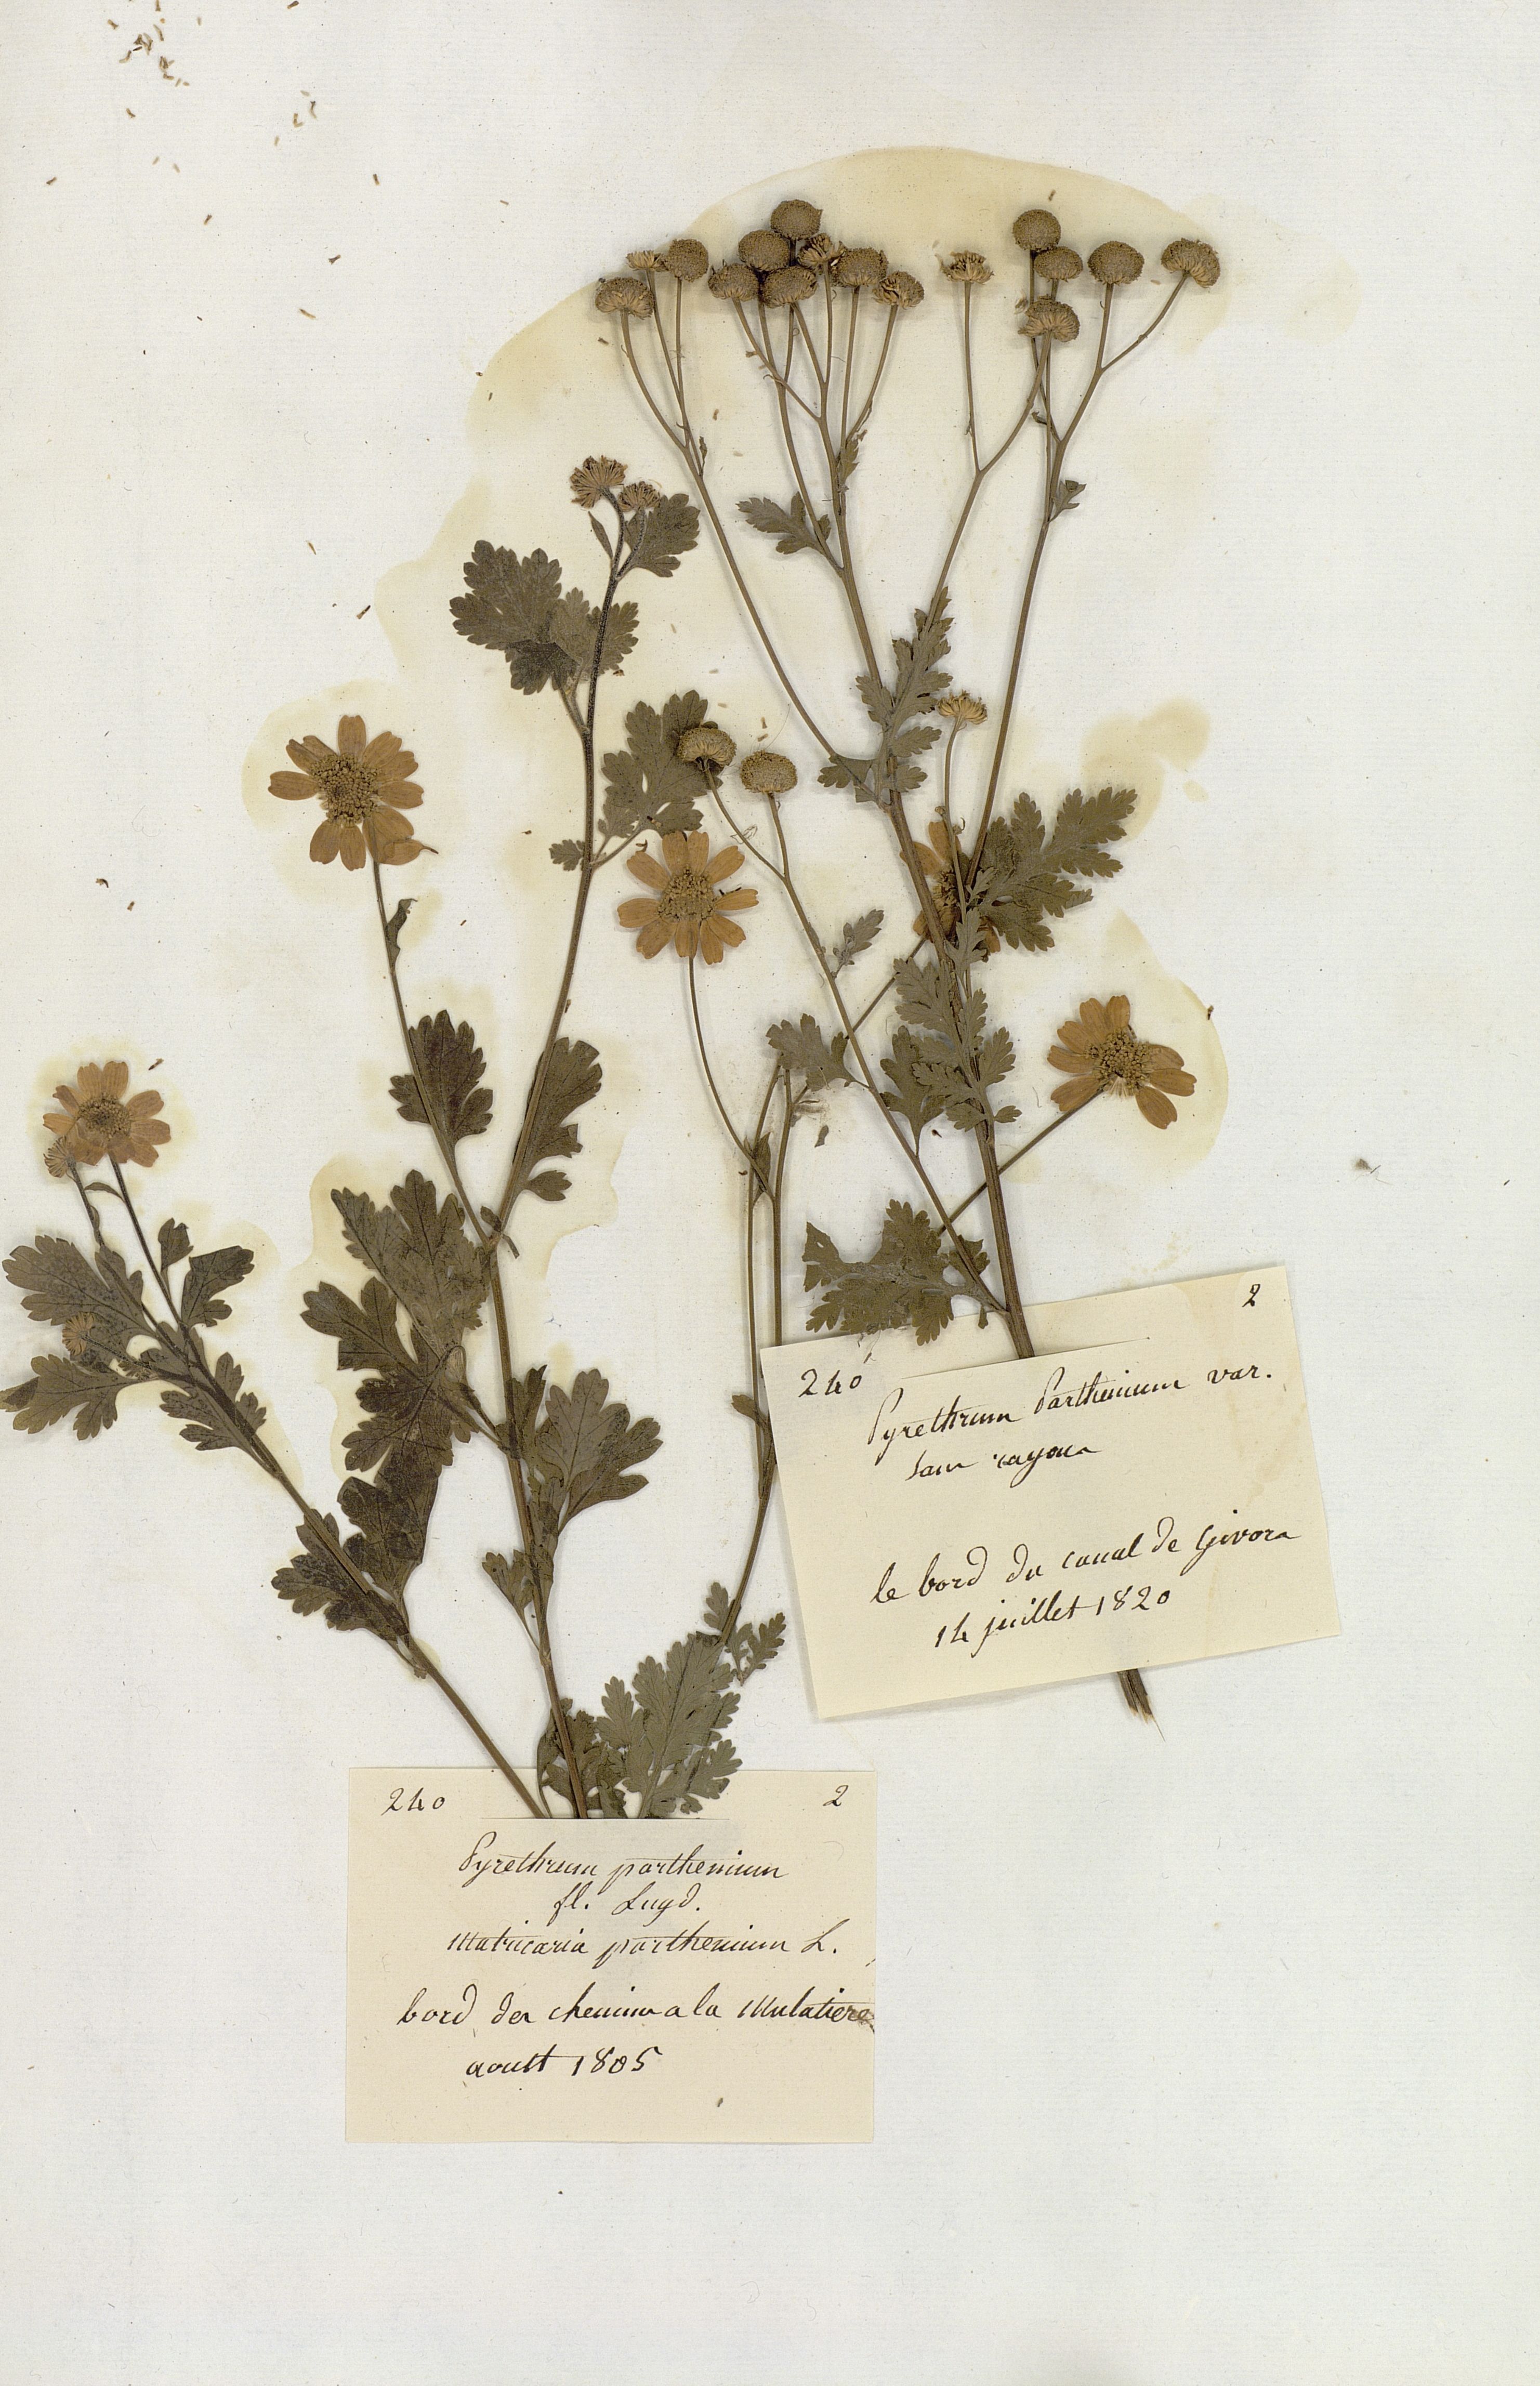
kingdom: Plantae
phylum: Tracheophyta
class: Magnoliopsida
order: Asterales
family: Asteraceae
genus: Tanacetum
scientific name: Tanacetum parthenium
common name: Feverfew
